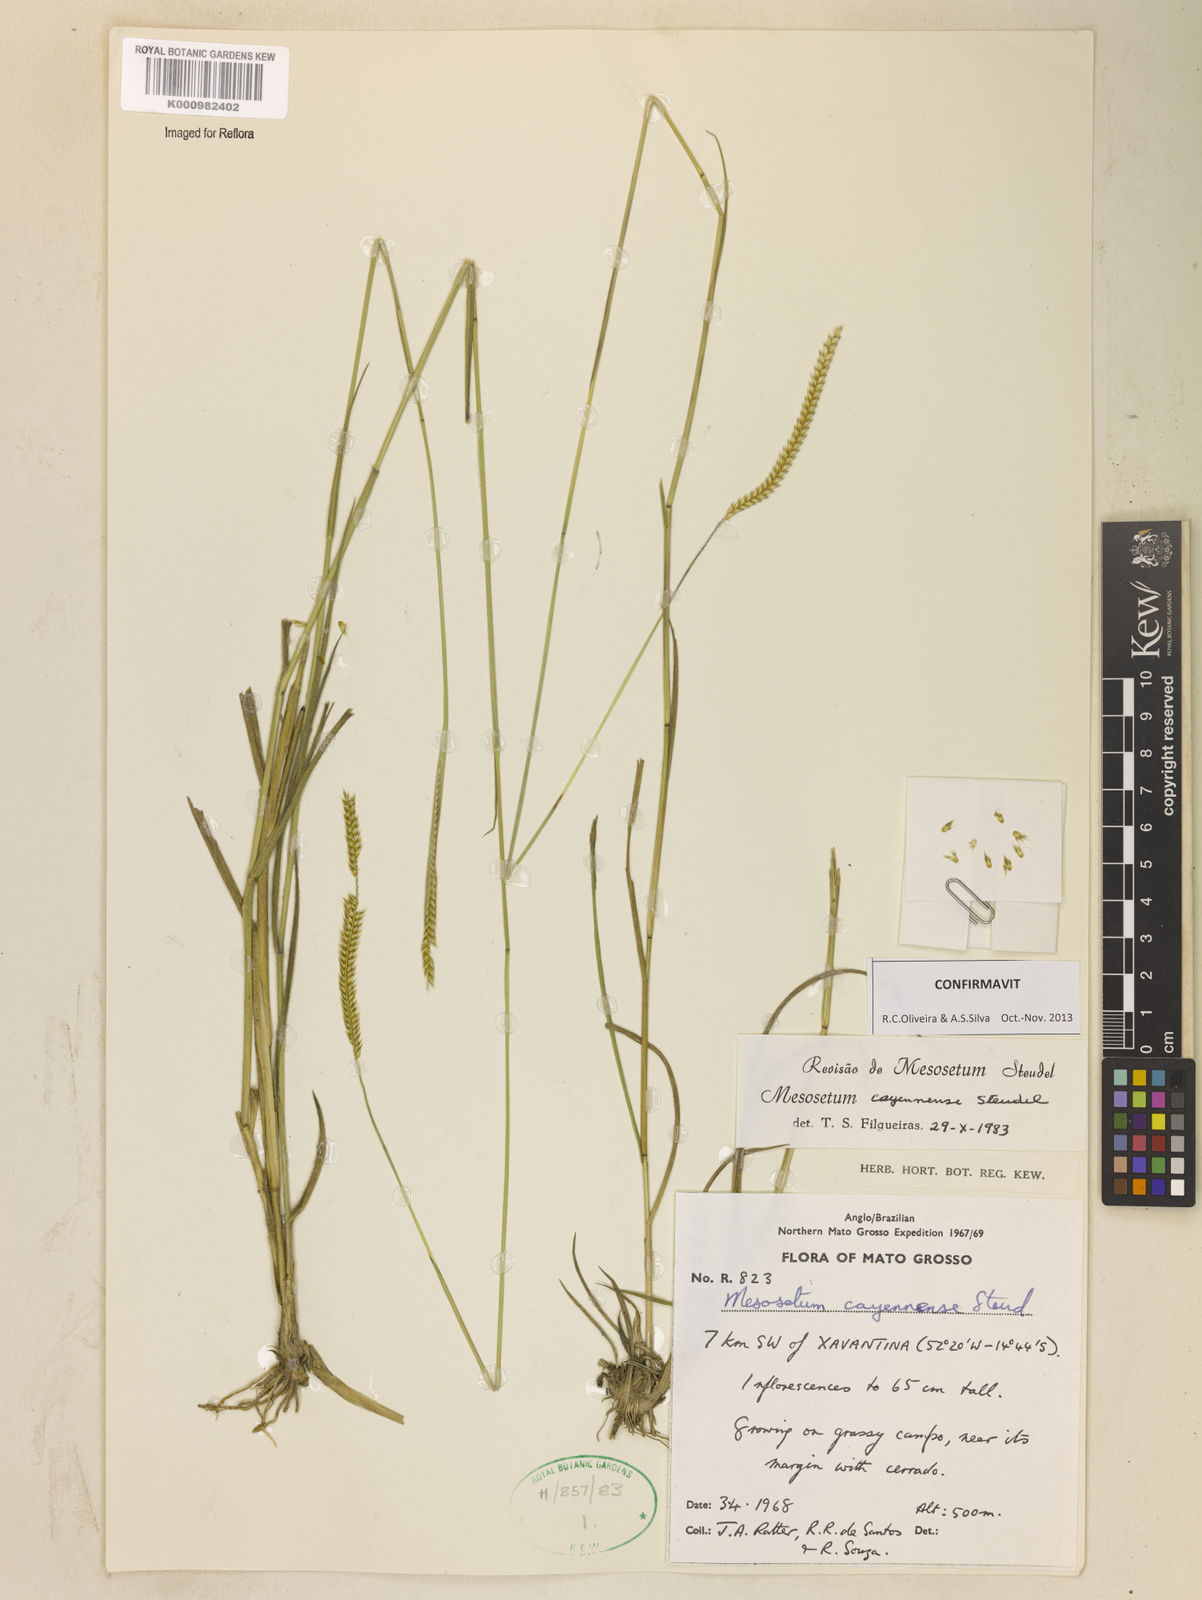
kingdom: Plantae
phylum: Tracheophyta
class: Liliopsida
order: Poales
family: Poaceae
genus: Mesosetum
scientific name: Mesosetum cayennense
